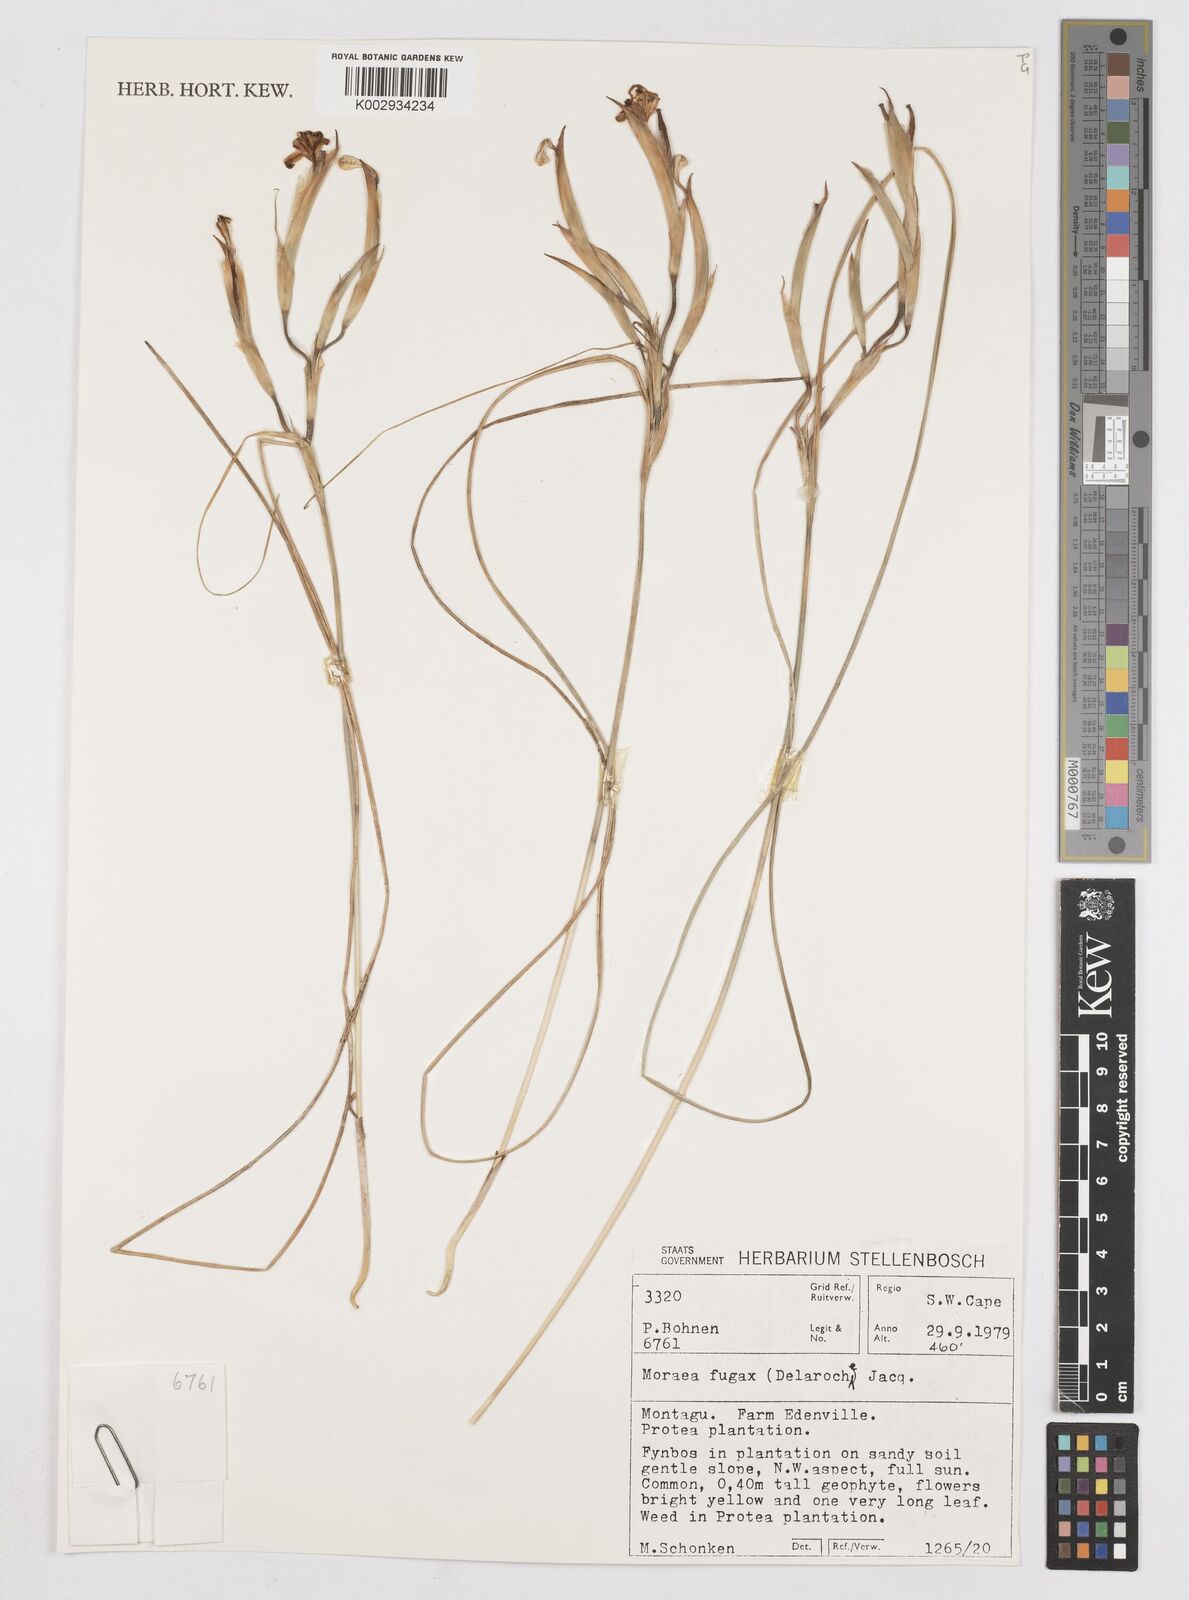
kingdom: Plantae
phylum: Tracheophyta
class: Liliopsida
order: Asparagales
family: Iridaceae
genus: Moraea
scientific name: Moraea fugax
